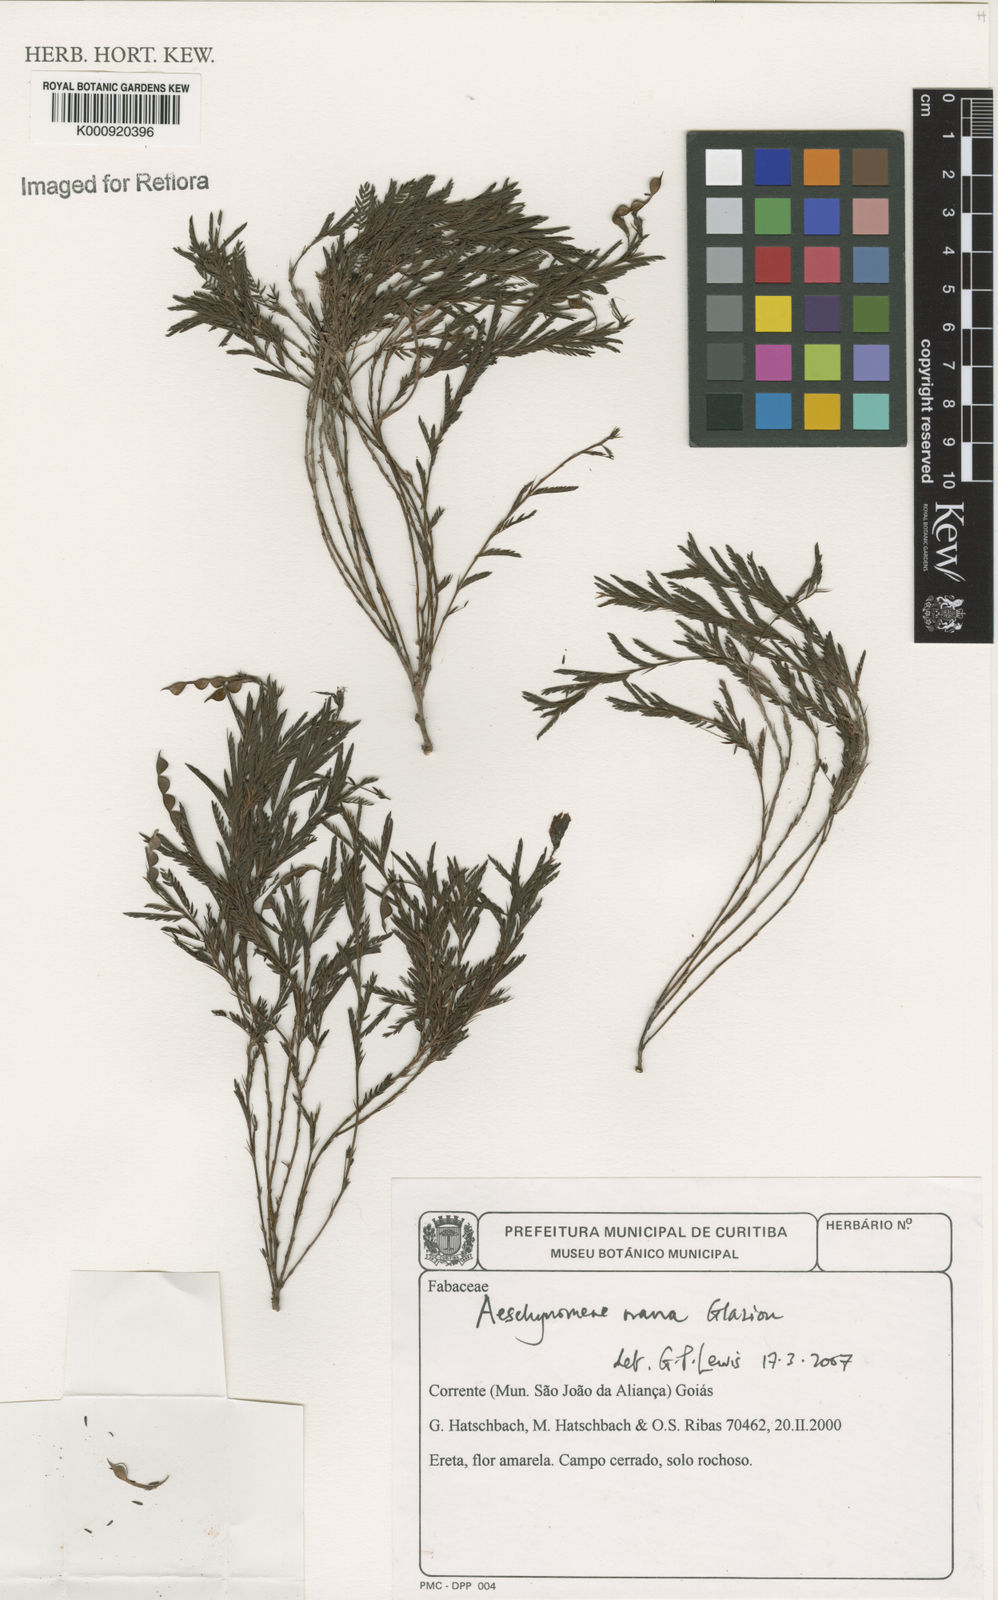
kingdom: Plantae
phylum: Tracheophyta
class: Magnoliopsida
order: Fabales
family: Fabaceae
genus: Ctenodon
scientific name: Ctenodon nanus
